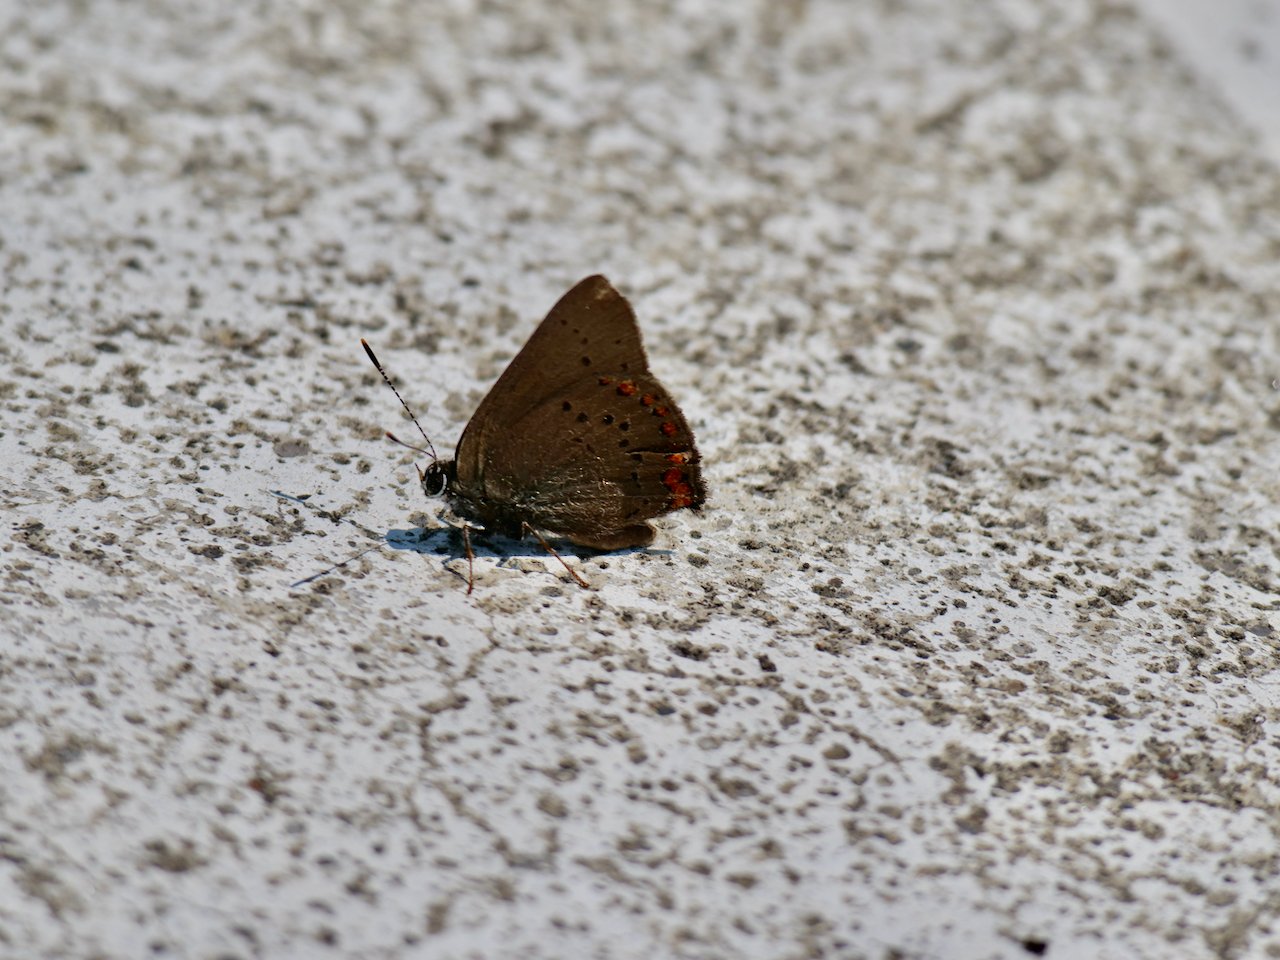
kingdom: Animalia
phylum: Arthropoda
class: Insecta
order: Lepidoptera
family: Lycaenidae
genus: Harkenclenus
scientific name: Harkenclenus titus
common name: Coral Hairstreak
